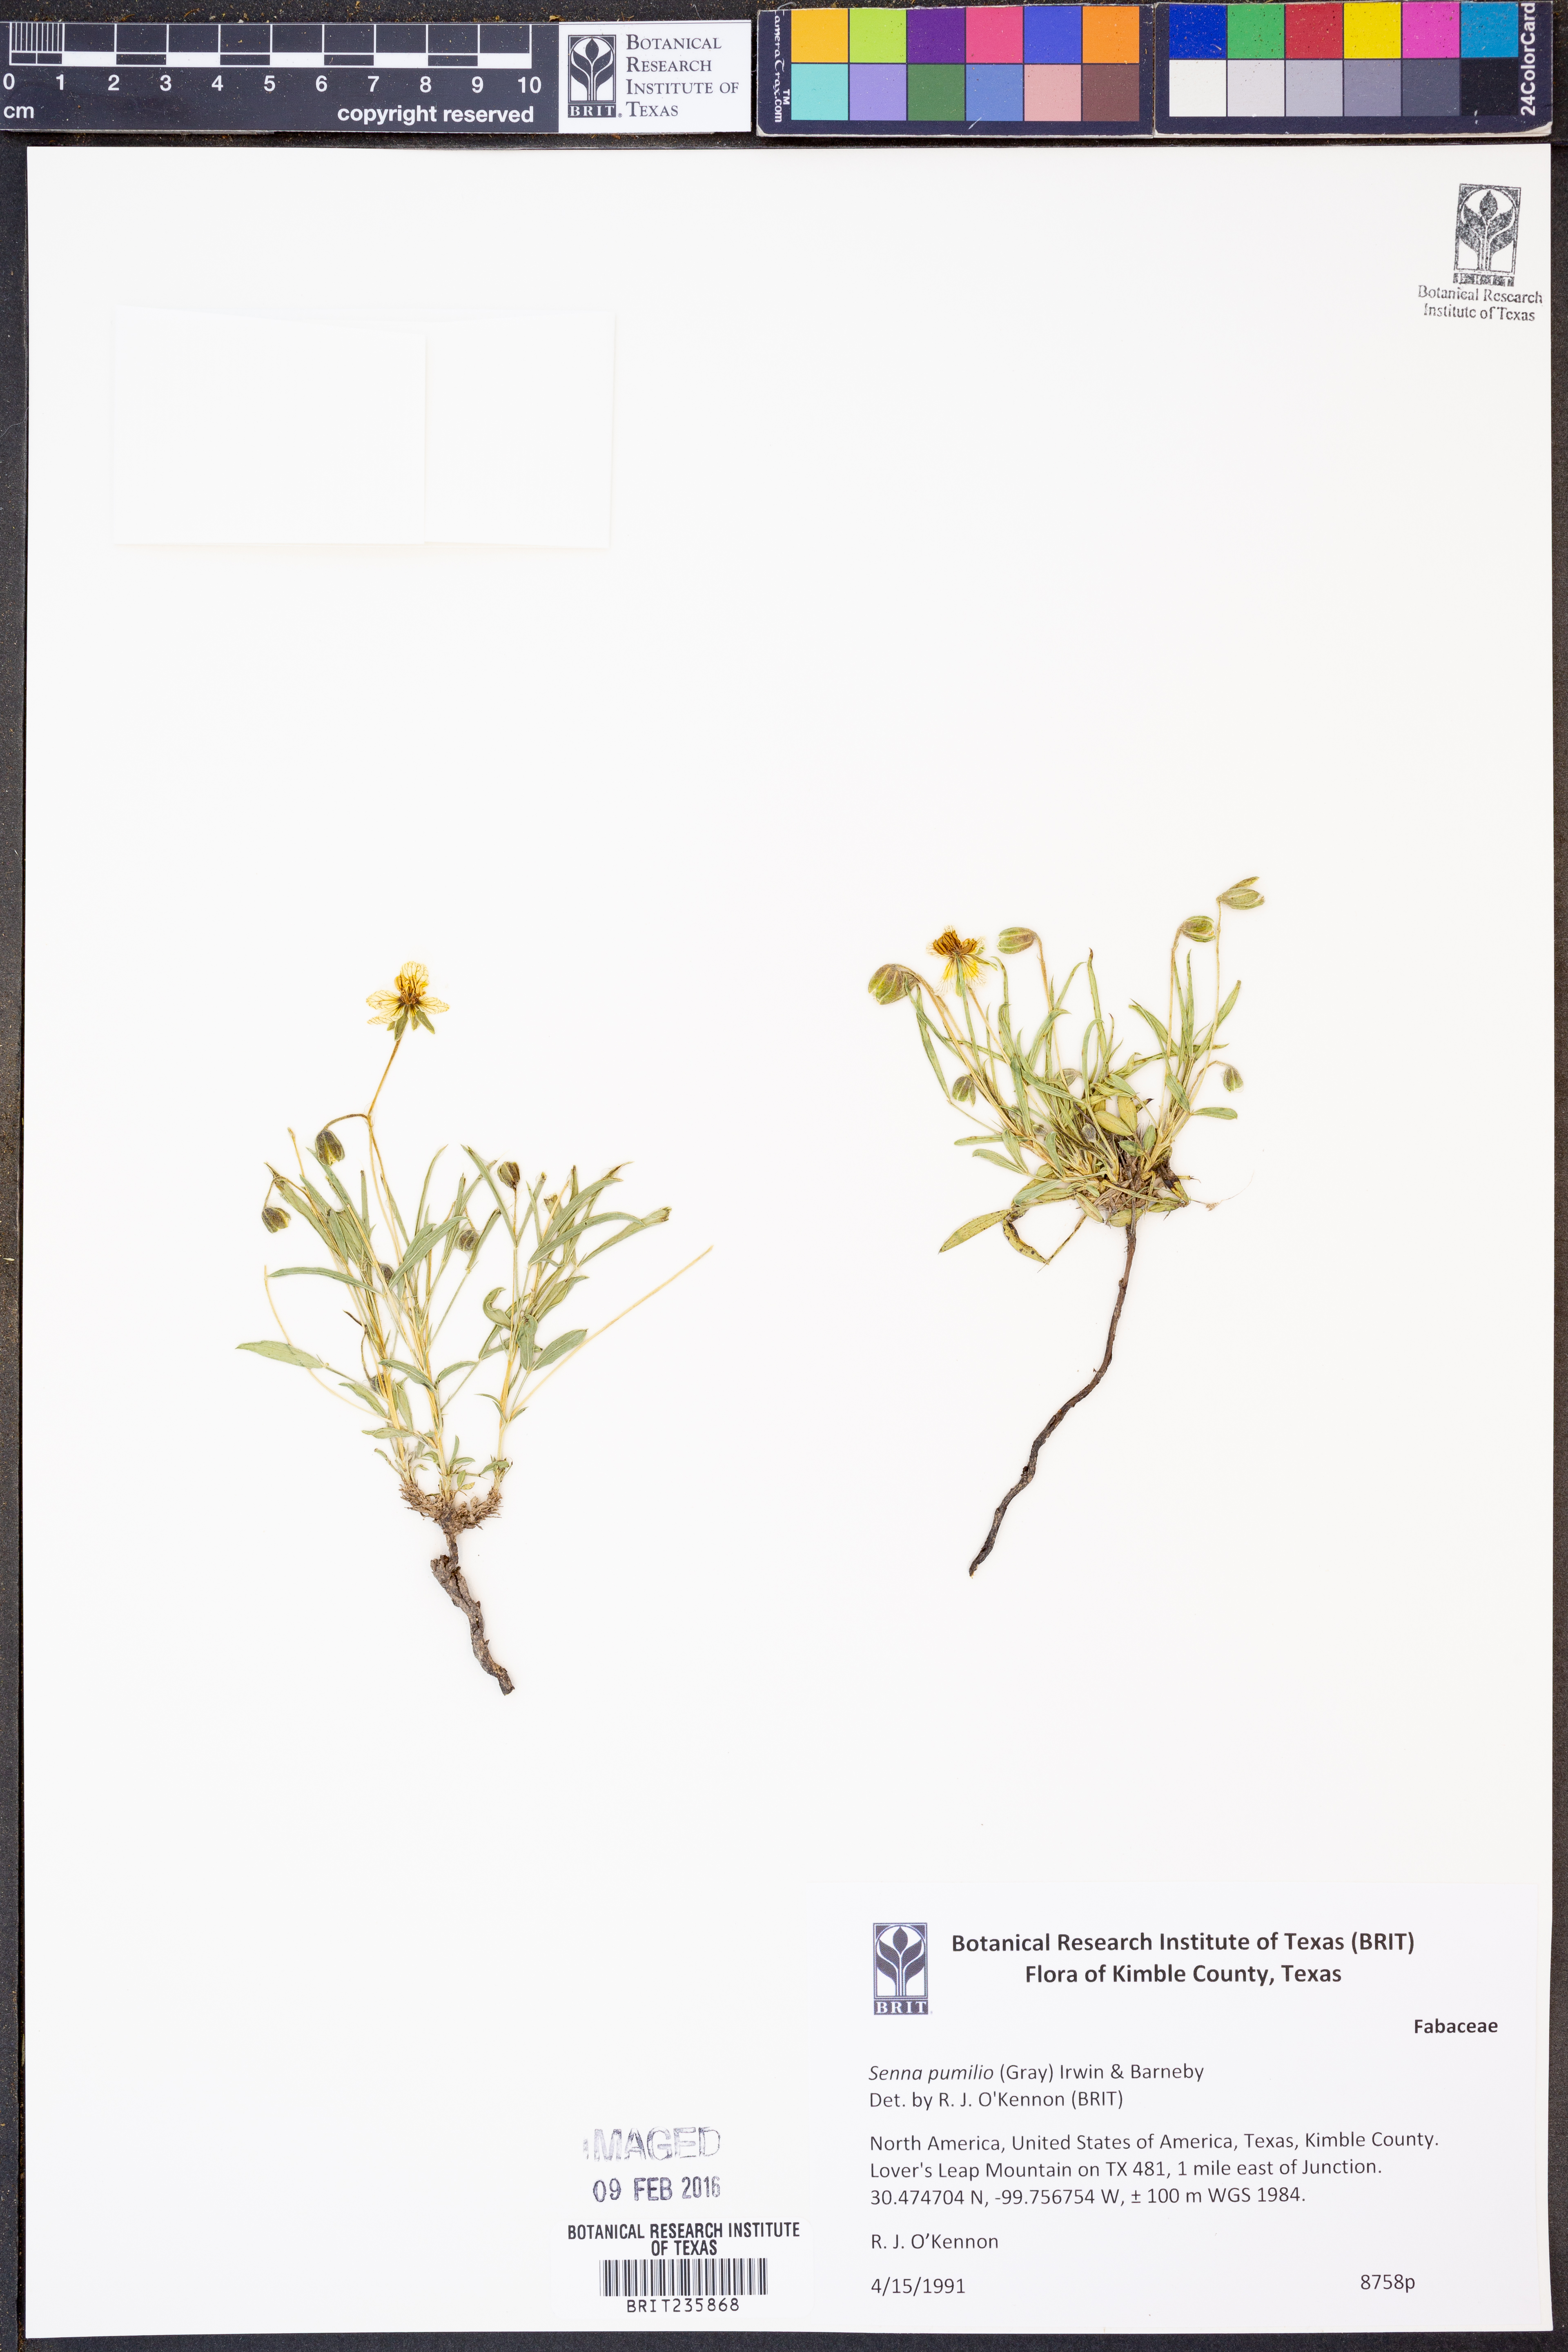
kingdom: Plantae
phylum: Tracheophyta
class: Magnoliopsida
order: Fabales
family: Fabaceae
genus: Senna
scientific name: Senna pumilio
